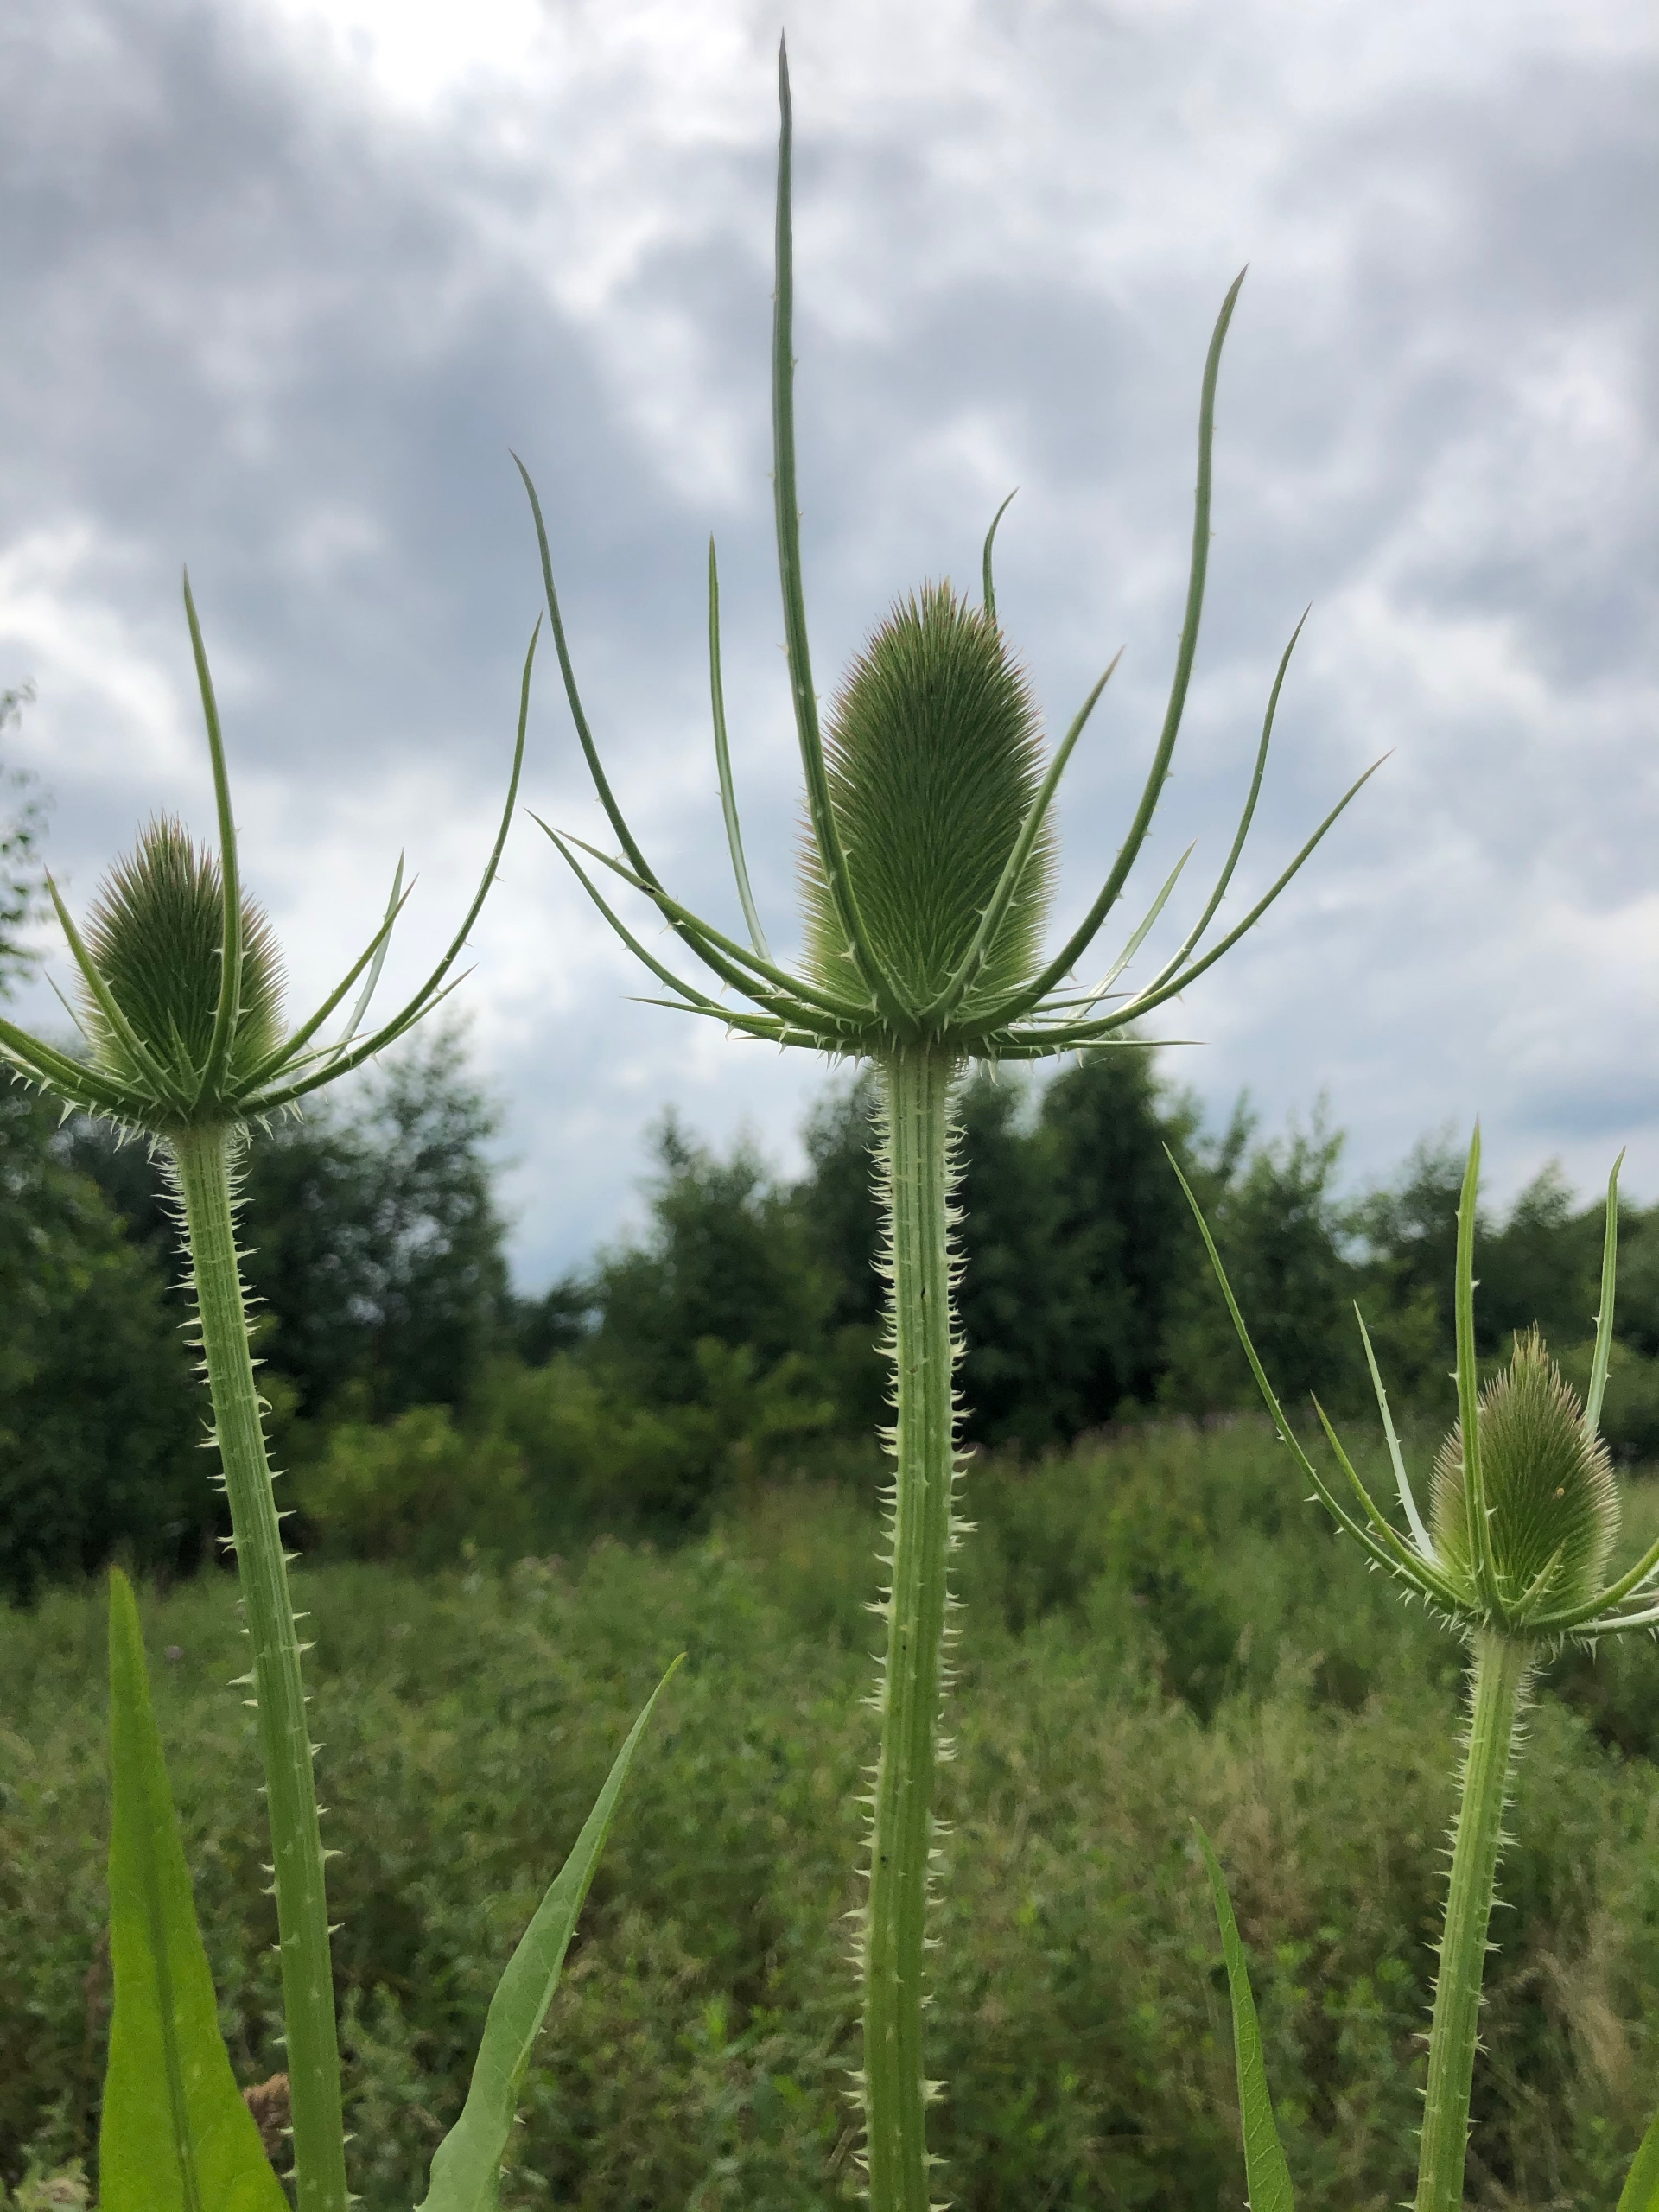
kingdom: Plantae
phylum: Tracheophyta
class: Magnoliopsida
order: Dipsacales
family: Caprifoliaceae
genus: Dipsacus
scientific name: Dipsacus fullonum
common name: Gærde-kartebolle
